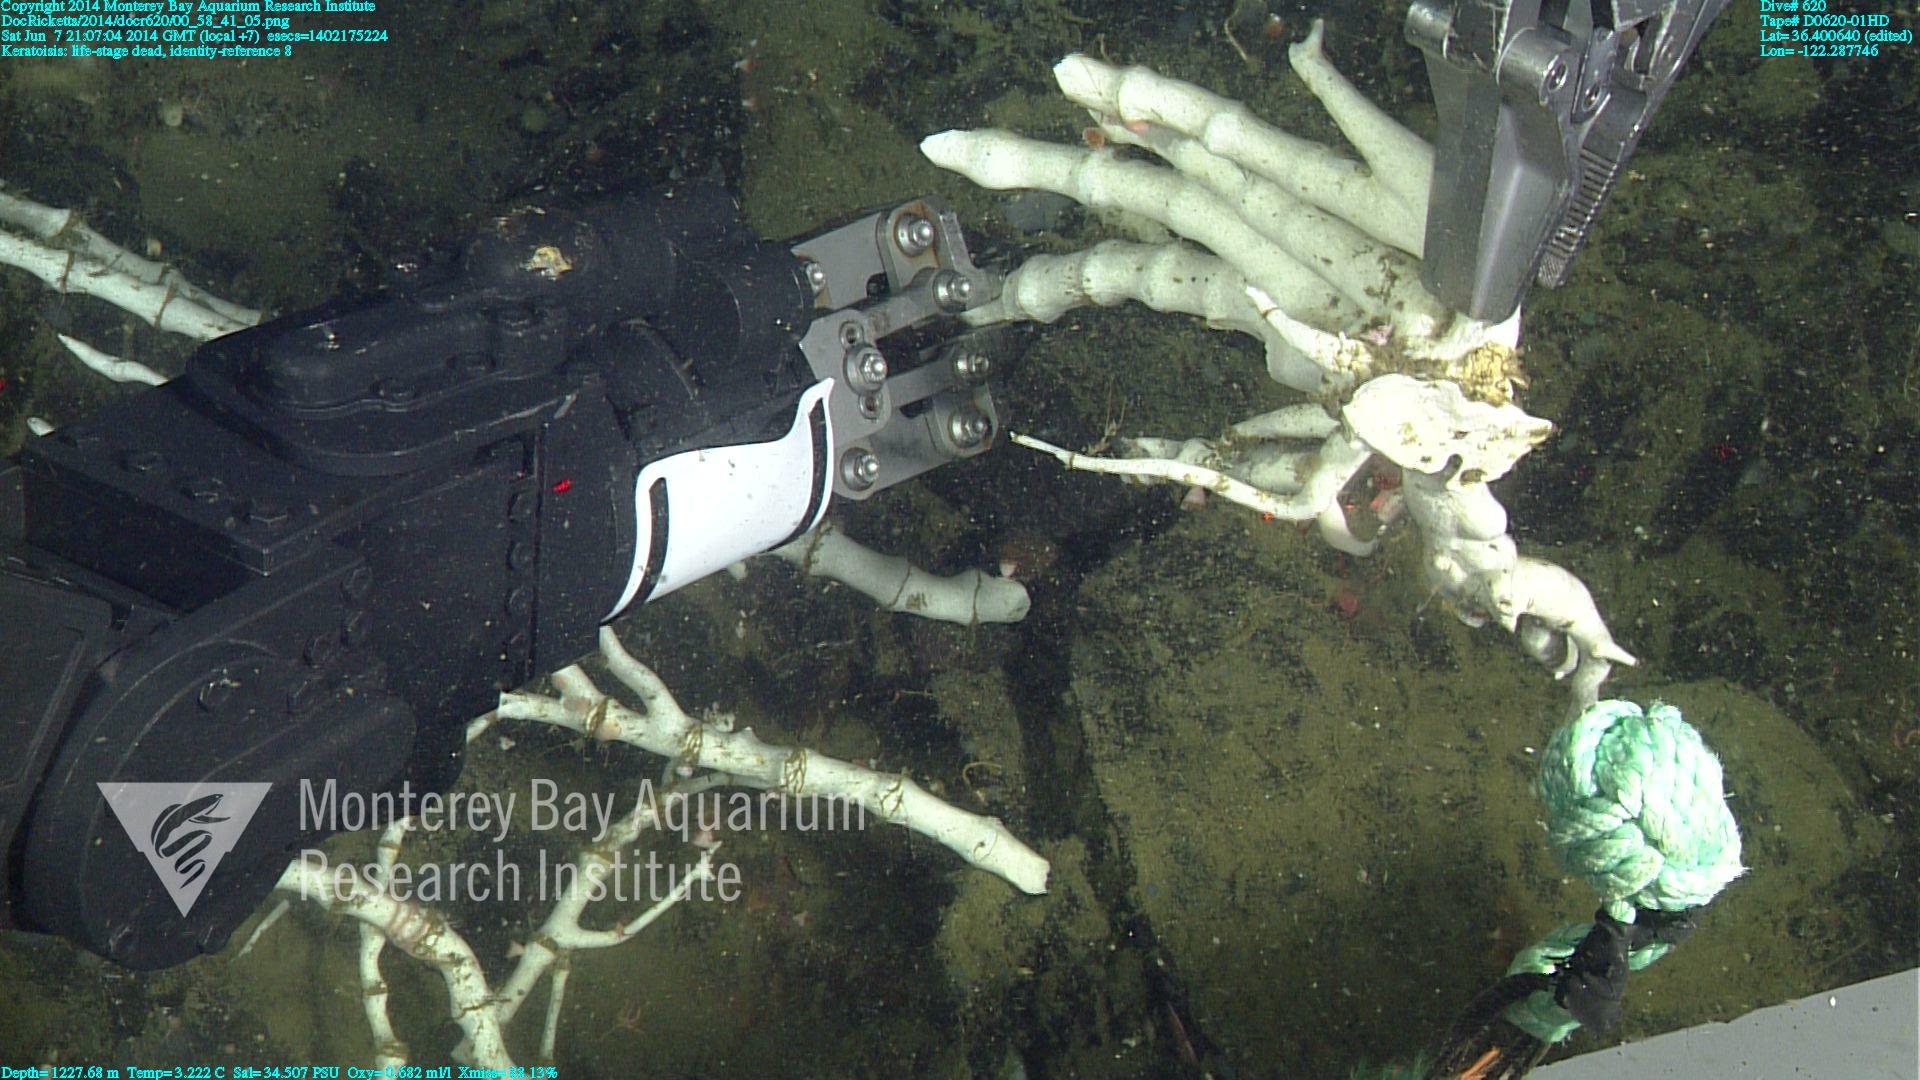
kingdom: Animalia
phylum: Cnidaria
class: Anthozoa
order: Scleralcyonacea
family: Keratoisididae
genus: Keratoisis
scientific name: Keratoisis
